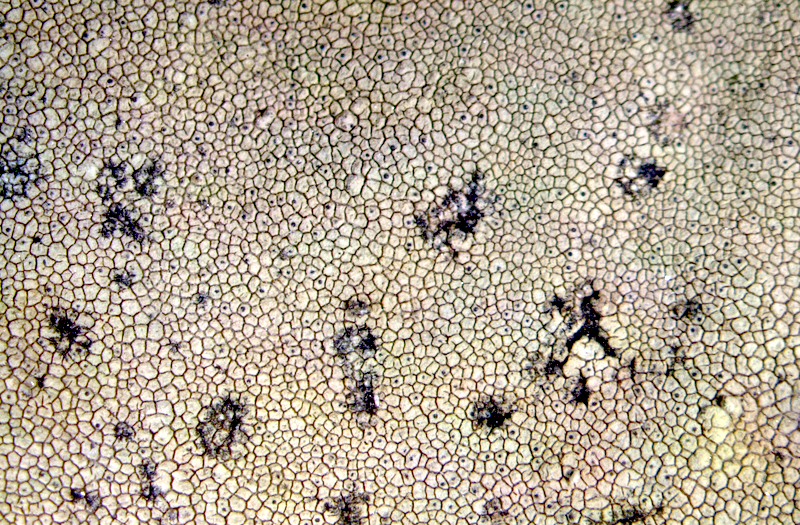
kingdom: Fungi
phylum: Ascomycota
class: Lecanoromycetes
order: Caliciales
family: Caliciaceae
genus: Buellia
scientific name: Buellia
